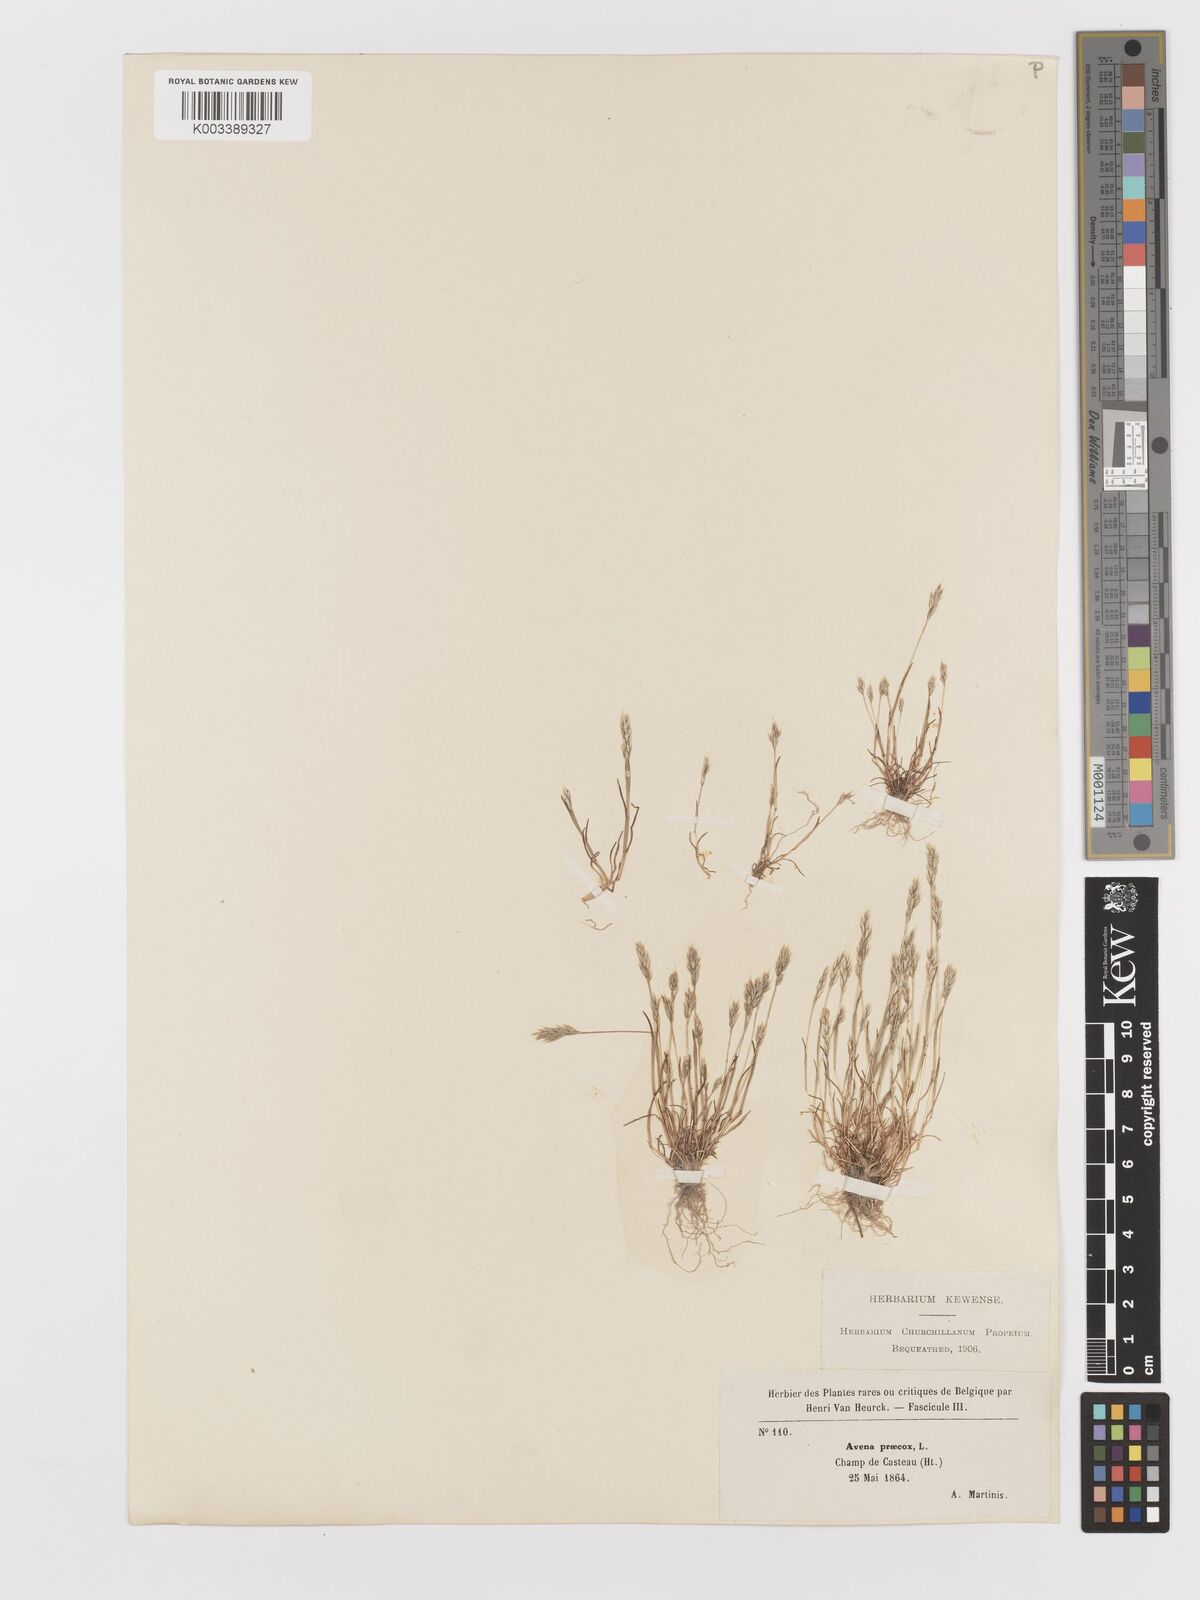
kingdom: Plantae
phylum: Tracheophyta
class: Liliopsida
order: Poales
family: Poaceae
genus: Aira
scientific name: Aira praecox
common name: Early hair-grass
